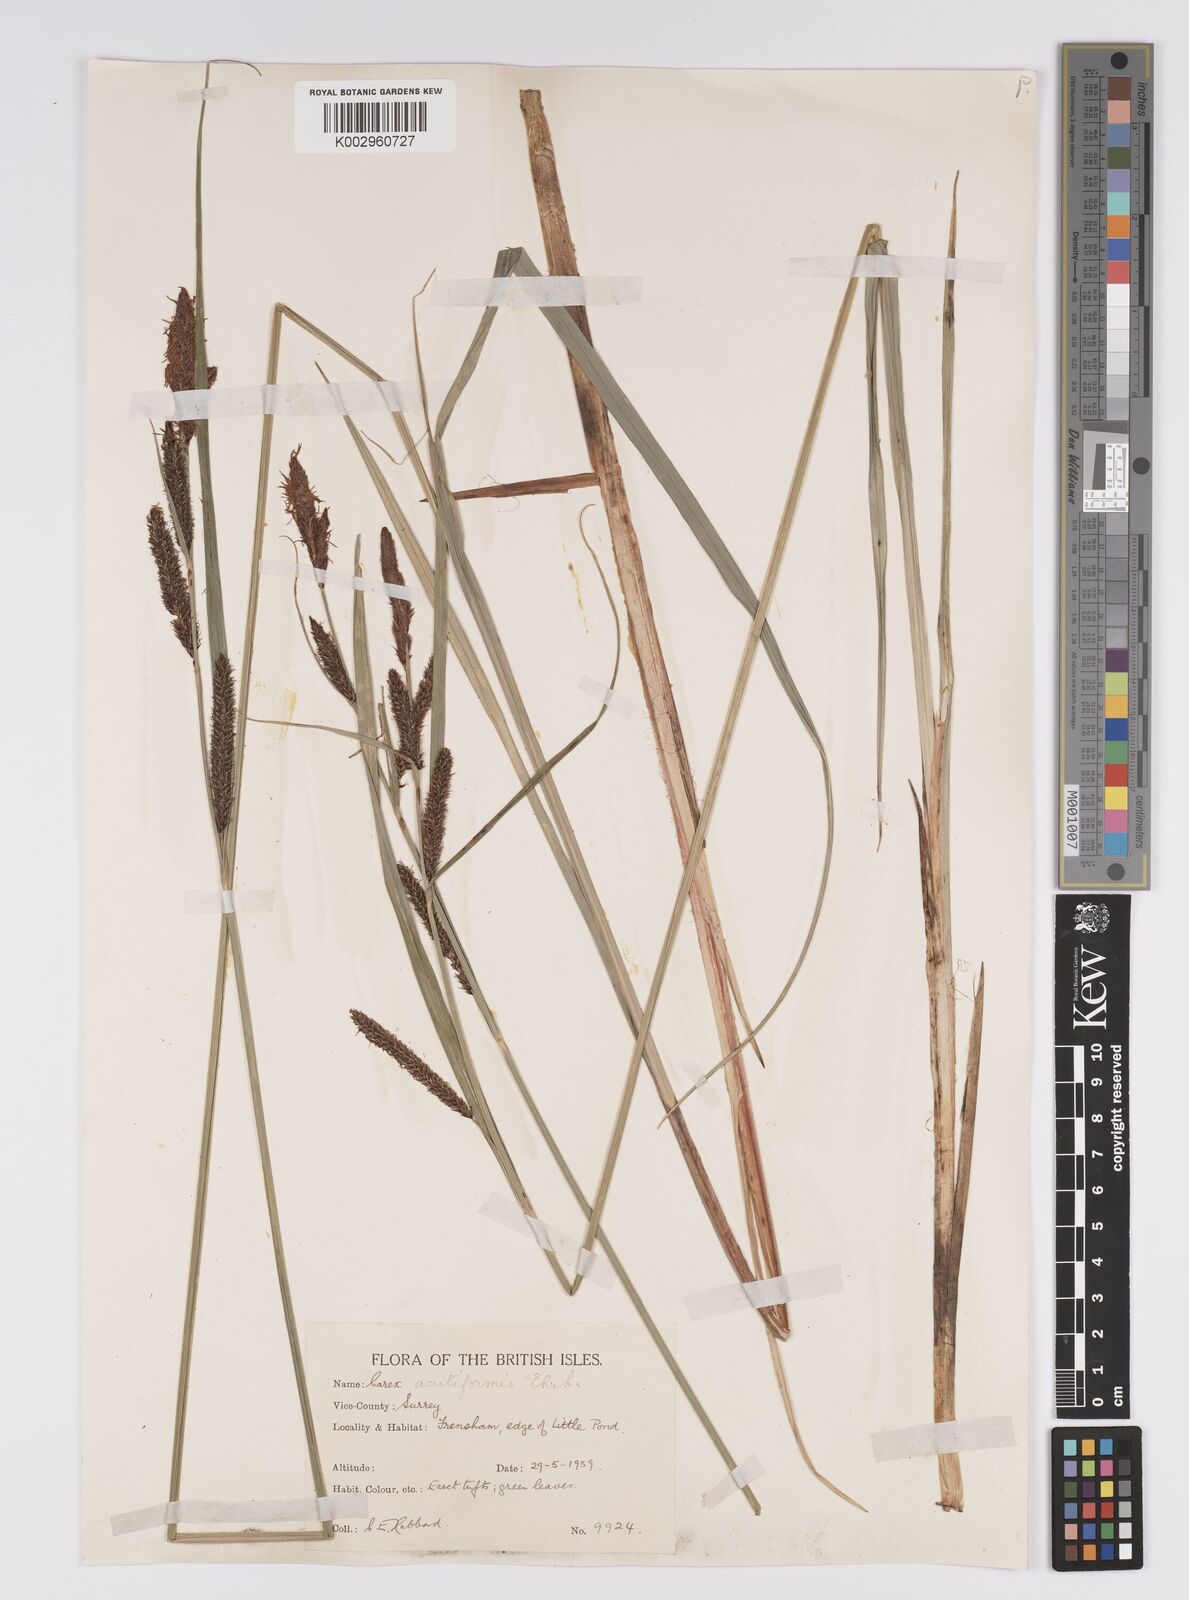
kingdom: Plantae
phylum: Tracheophyta
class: Liliopsida
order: Poales
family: Cyperaceae
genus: Carex
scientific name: Carex acutiformis
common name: Lesser pond-sedge
